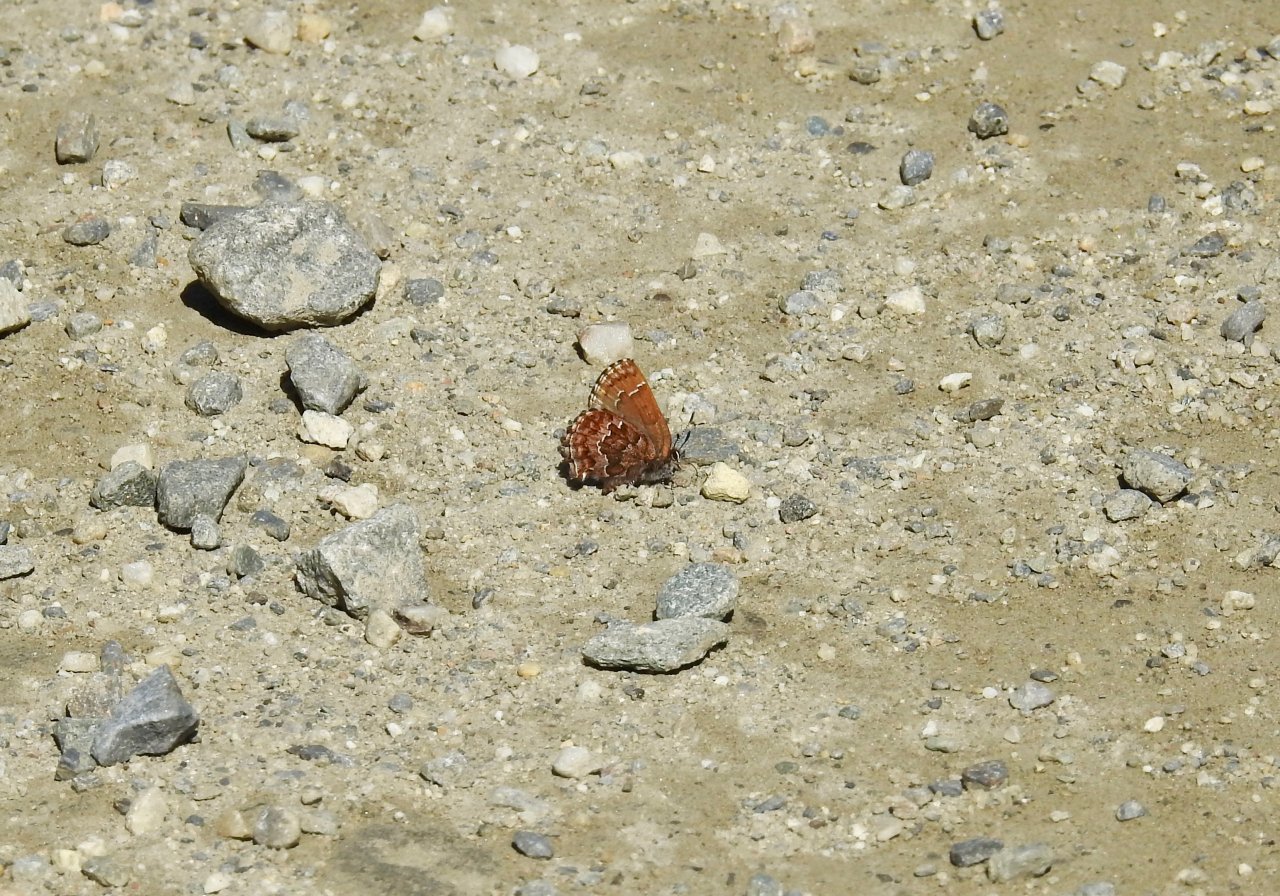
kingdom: Animalia
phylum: Arthropoda
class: Insecta
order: Lepidoptera
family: Lycaenidae
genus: Incisalia
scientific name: Incisalia niphon
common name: Eastern Pine Elfin
